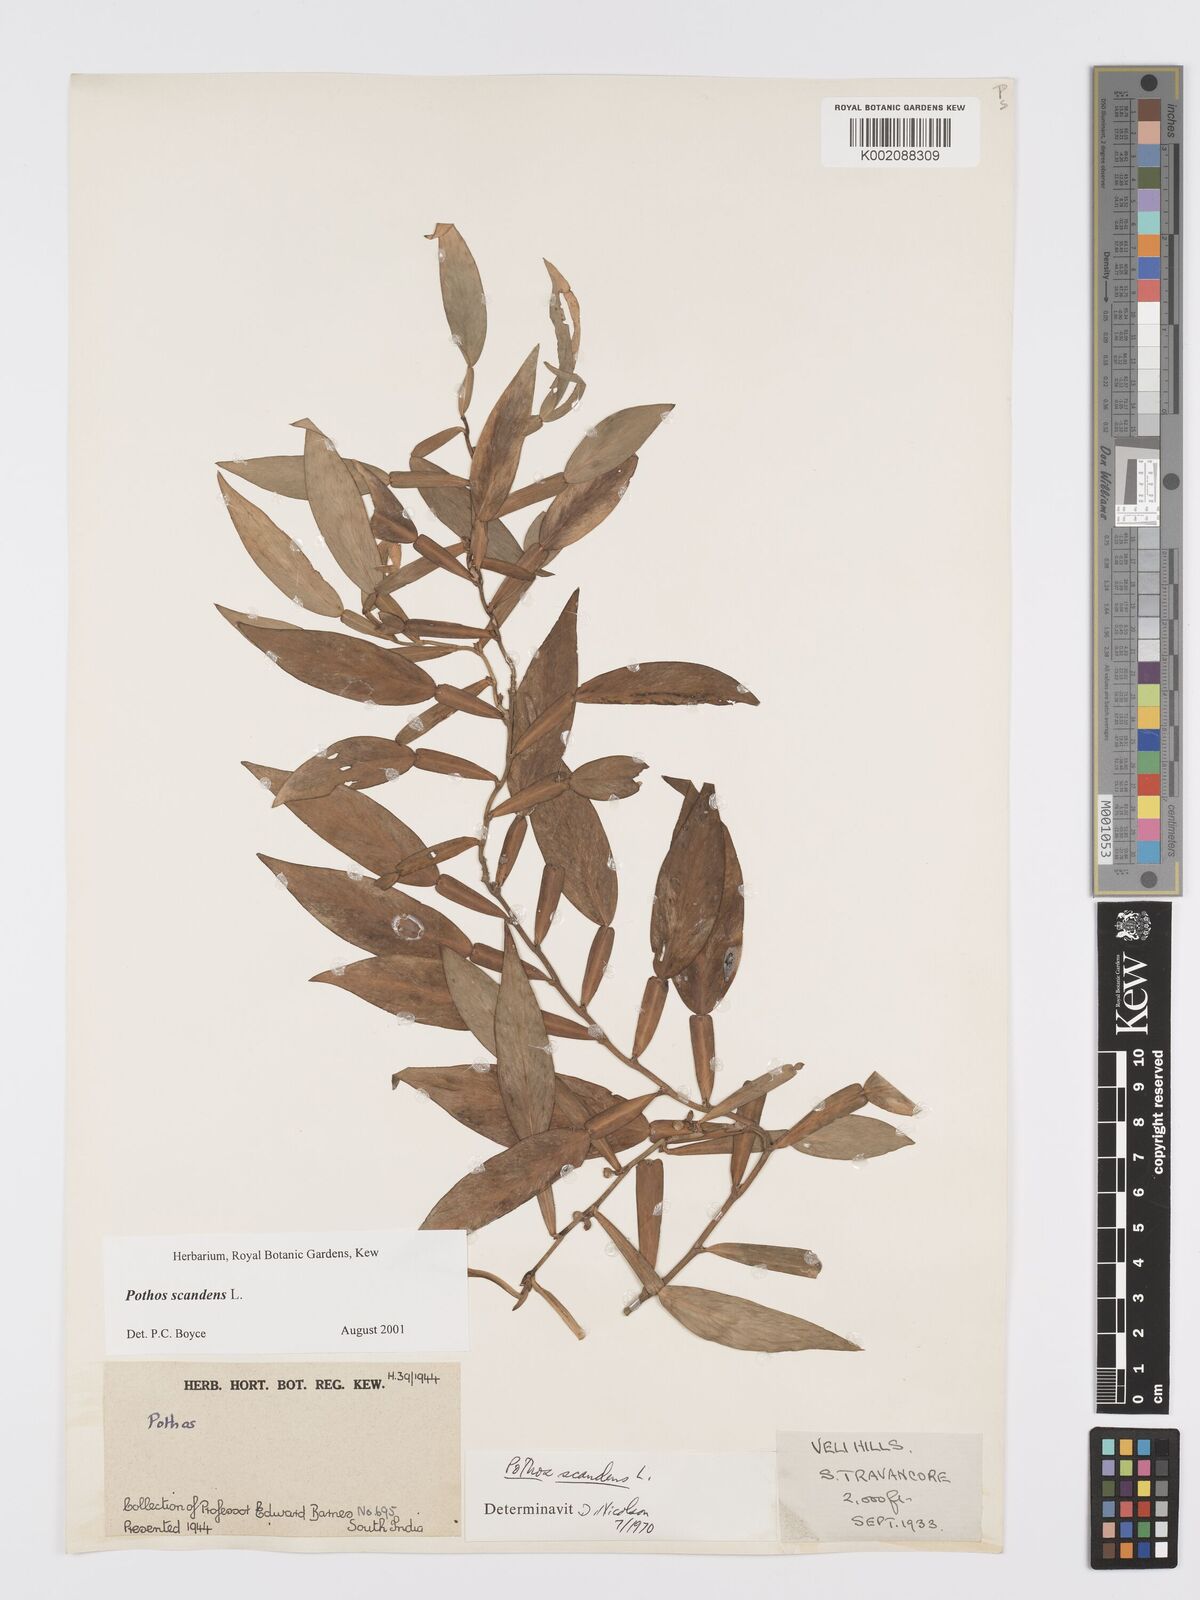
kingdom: Plantae
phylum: Tracheophyta
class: Liliopsida
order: Alismatales
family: Araceae
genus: Pothos
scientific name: Pothos scandens
